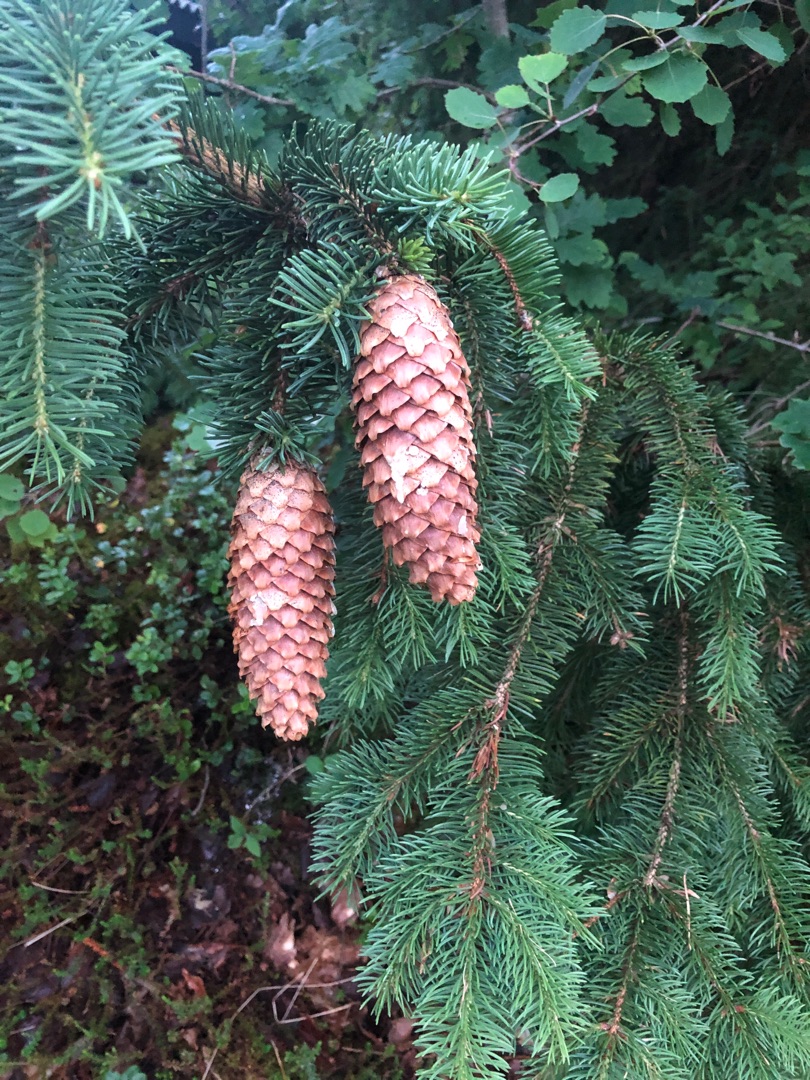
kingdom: Plantae
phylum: Tracheophyta
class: Pinopsida
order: Pinales
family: Pinaceae
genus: Picea
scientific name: Picea abies
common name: Rød-gran
